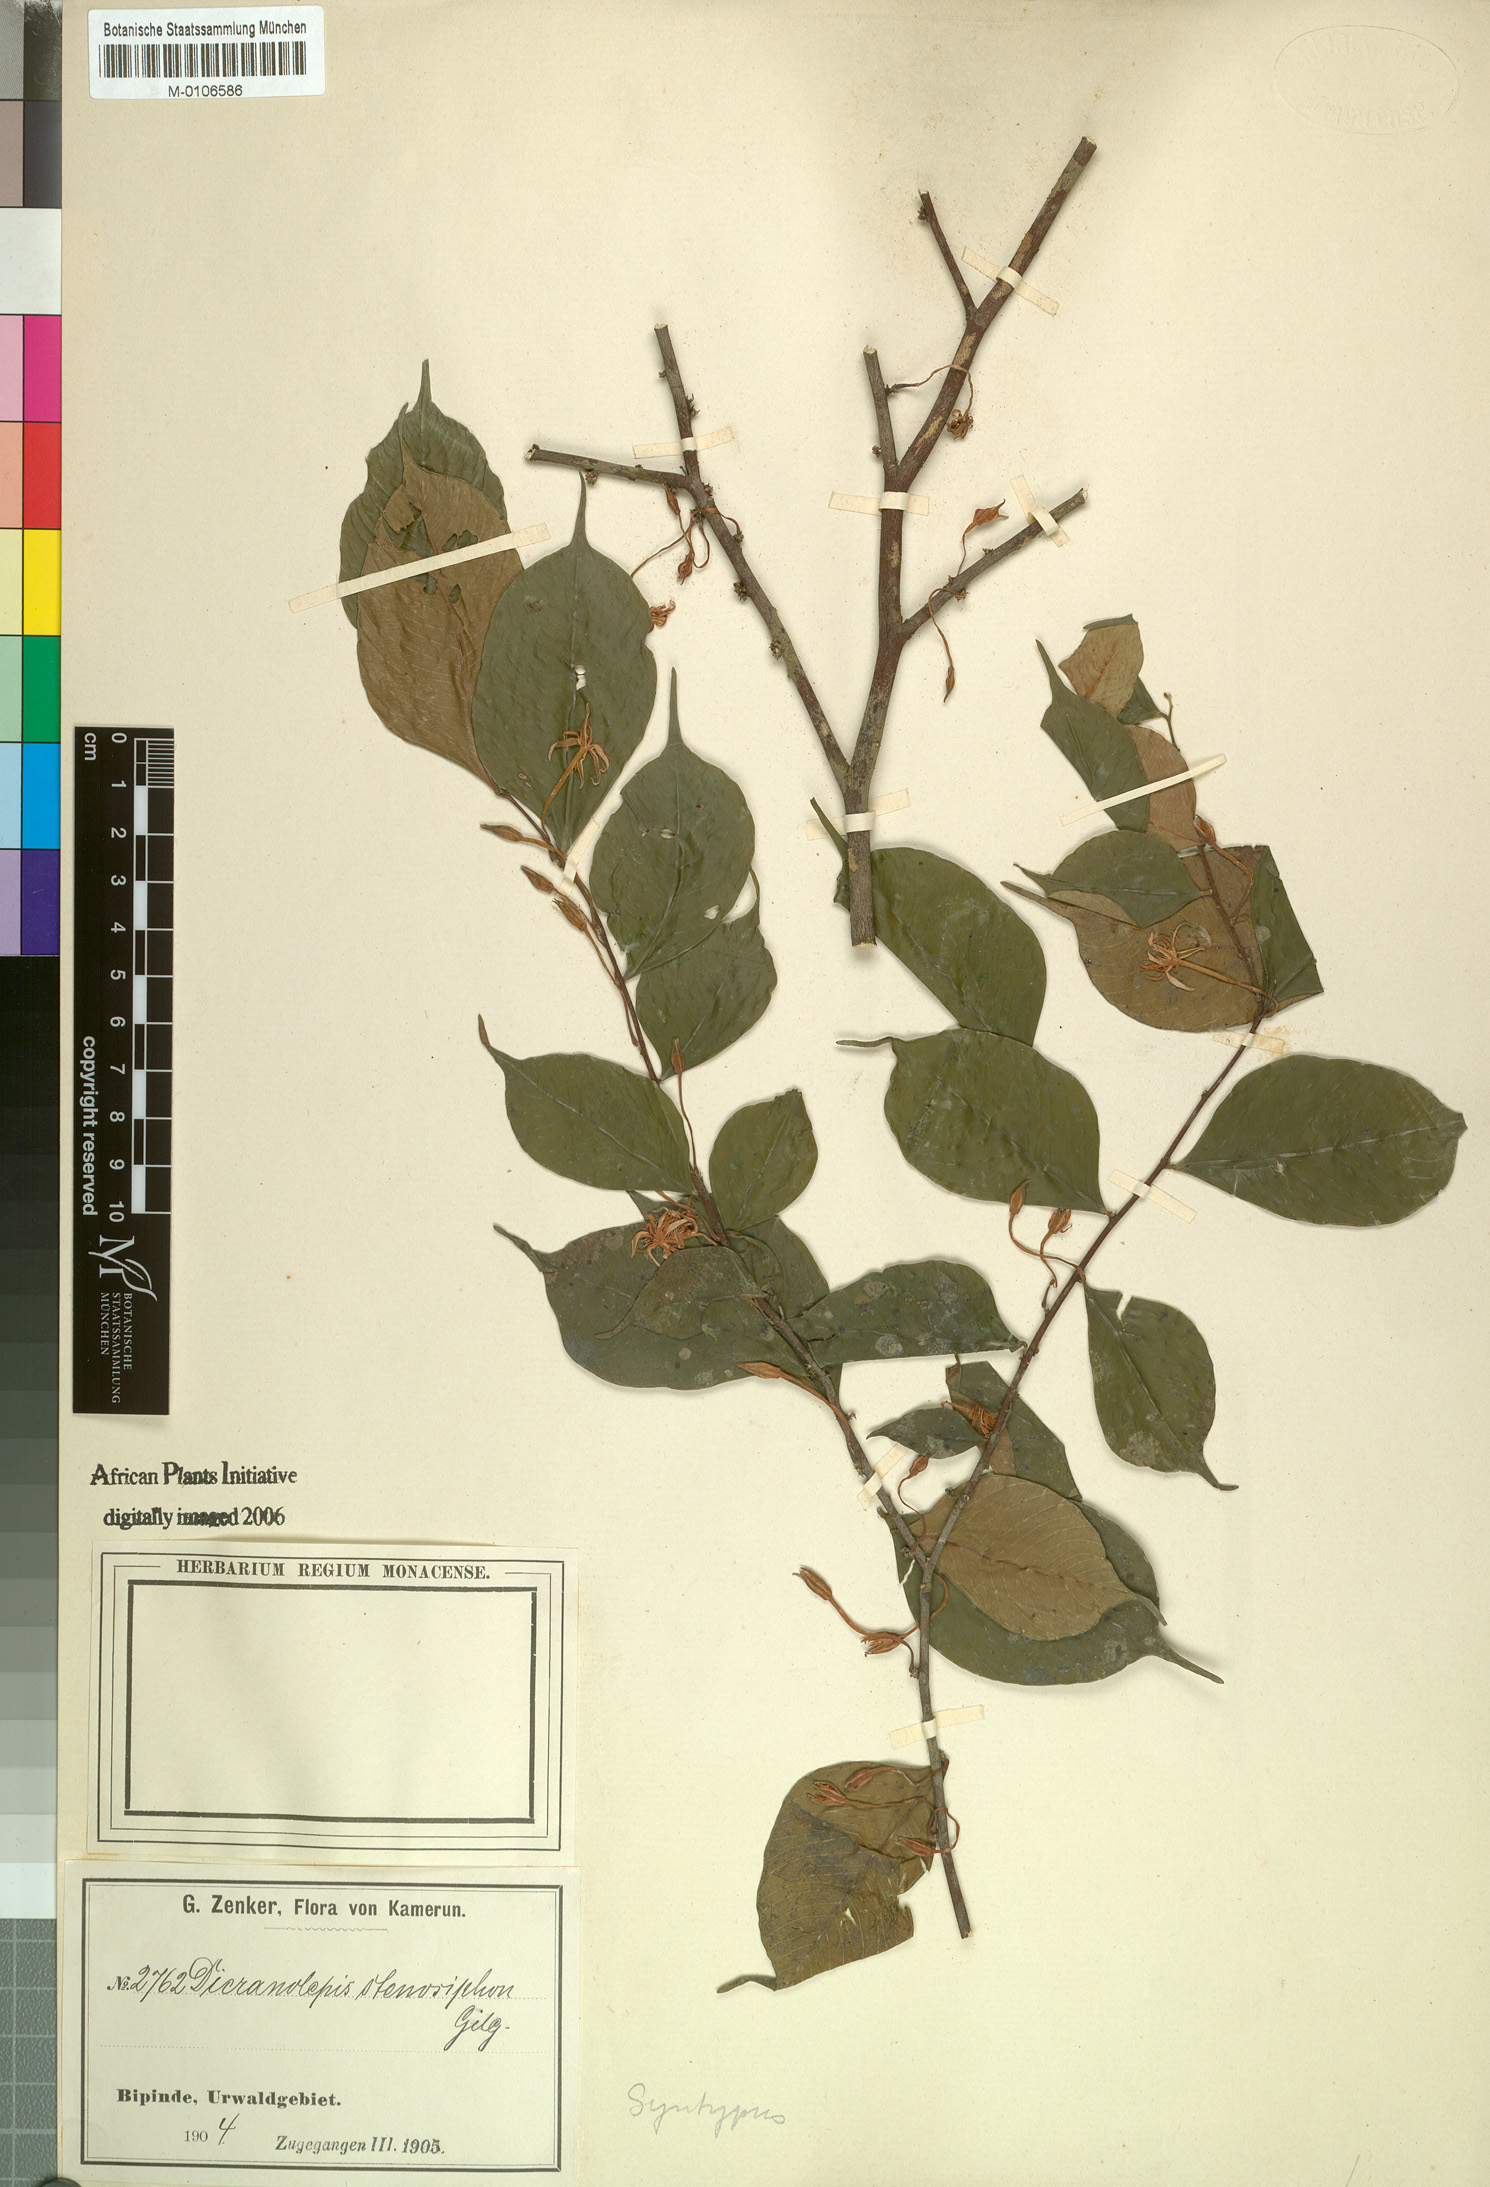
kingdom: Plantae
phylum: Tracheophyta
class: Magnoliopsida
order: Malvales
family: Thymelaeaceae
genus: Dicranolepis
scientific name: Dicranolepis disticha
